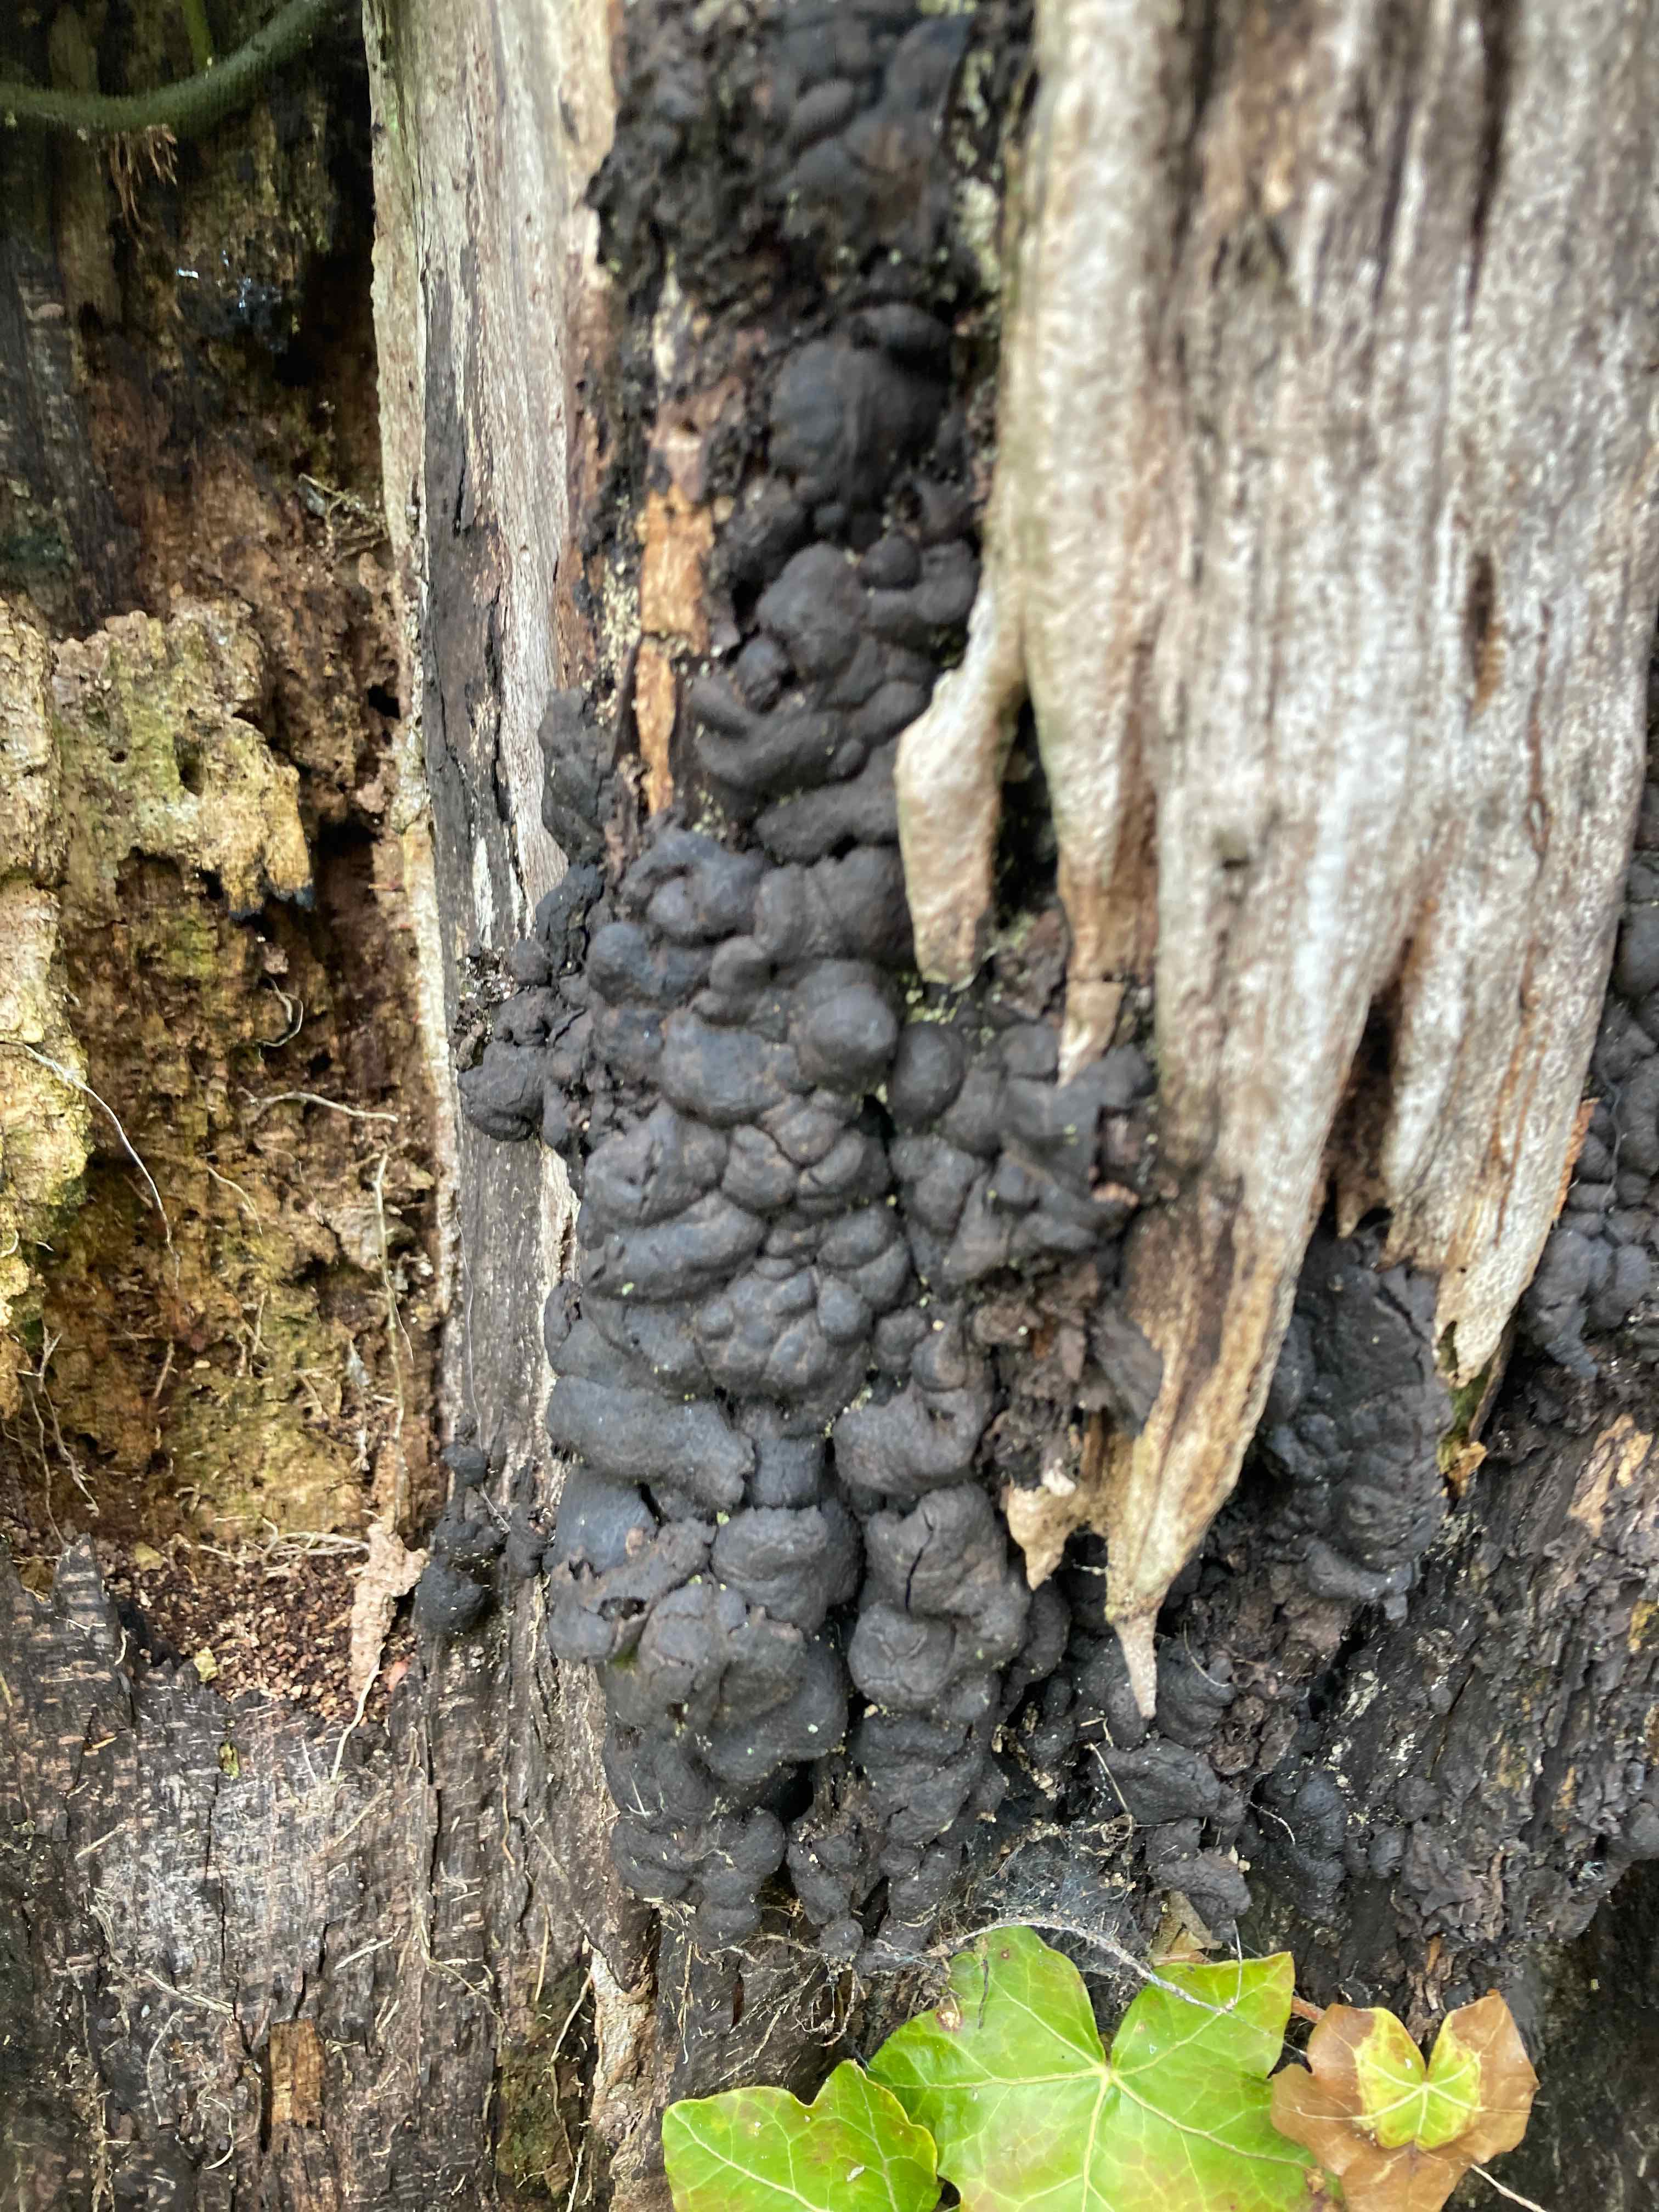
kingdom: Fungi
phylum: Ascomycota
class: Sordariomycetes
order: Xylariales
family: Xylariaceae
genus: Kretzschmaria
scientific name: Kretzschmaria deusta
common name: stor kulsvamp
